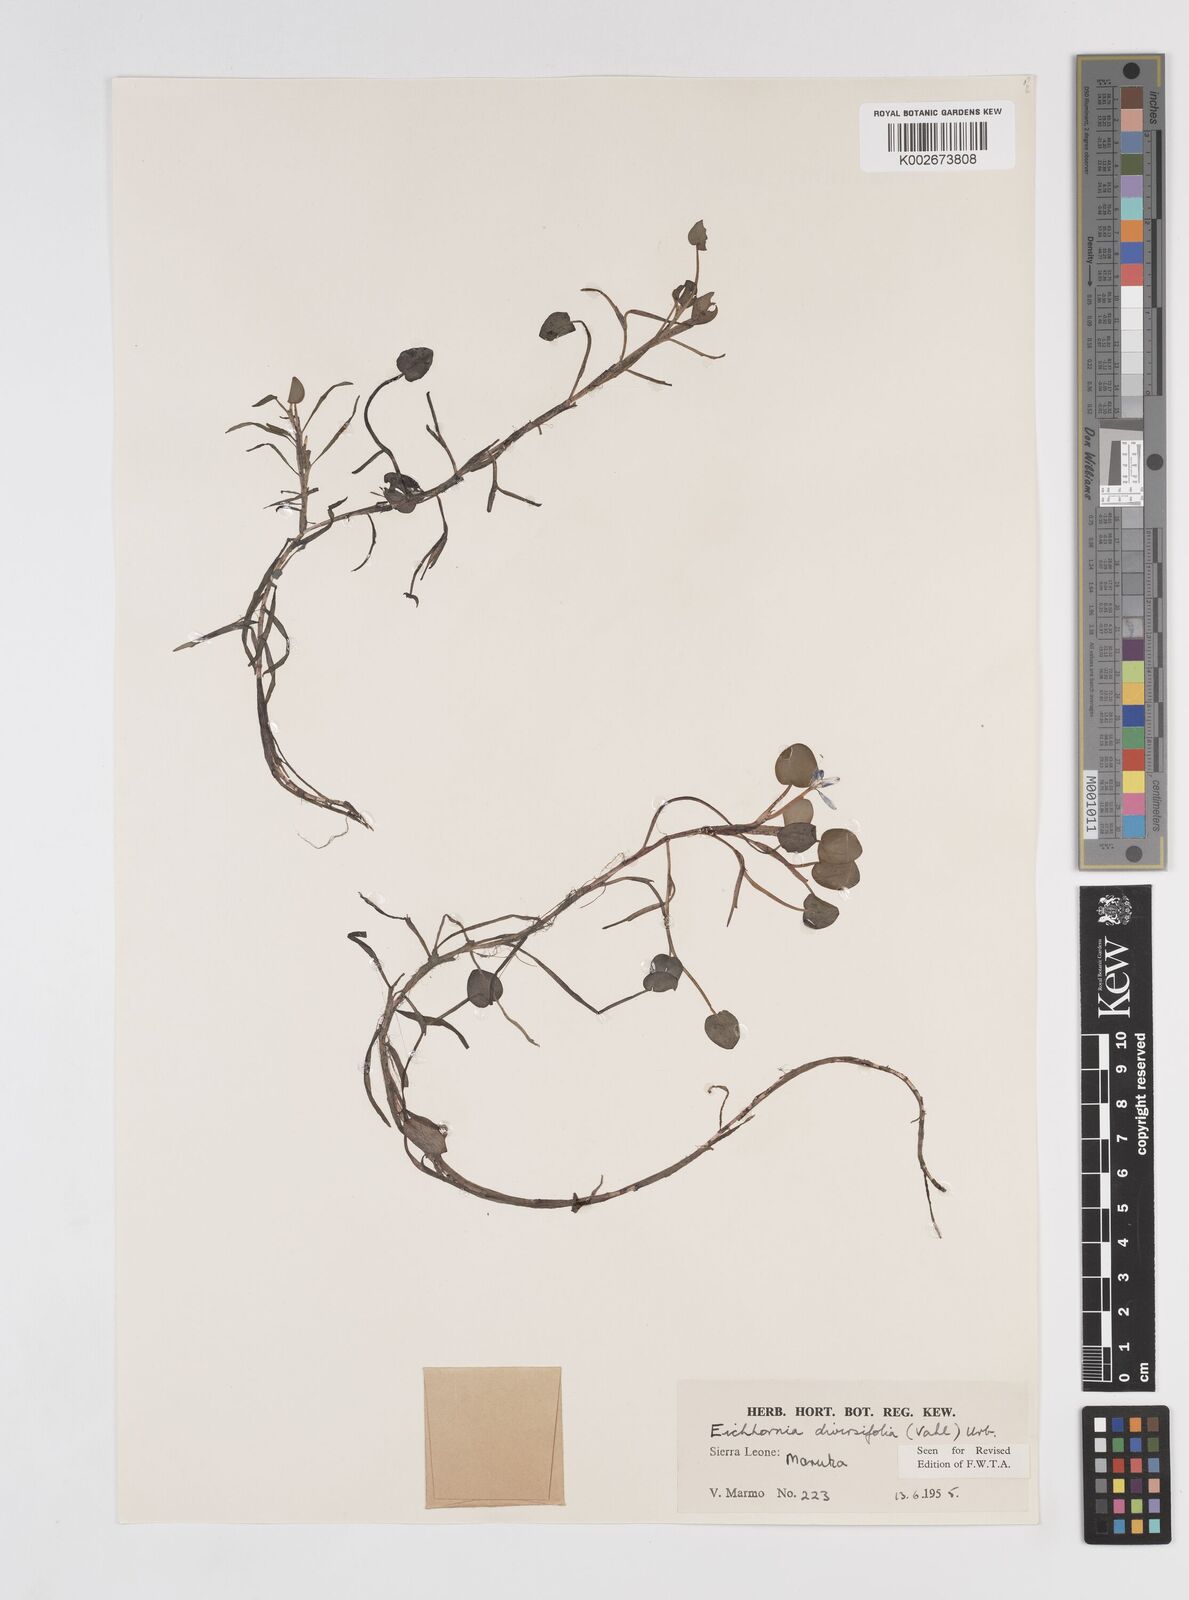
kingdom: Plantae
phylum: Tracheophyta
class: Liliopsida
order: Commelinales
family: Pontederiaceae
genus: Pontederia
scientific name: Pontederia diversifolia
